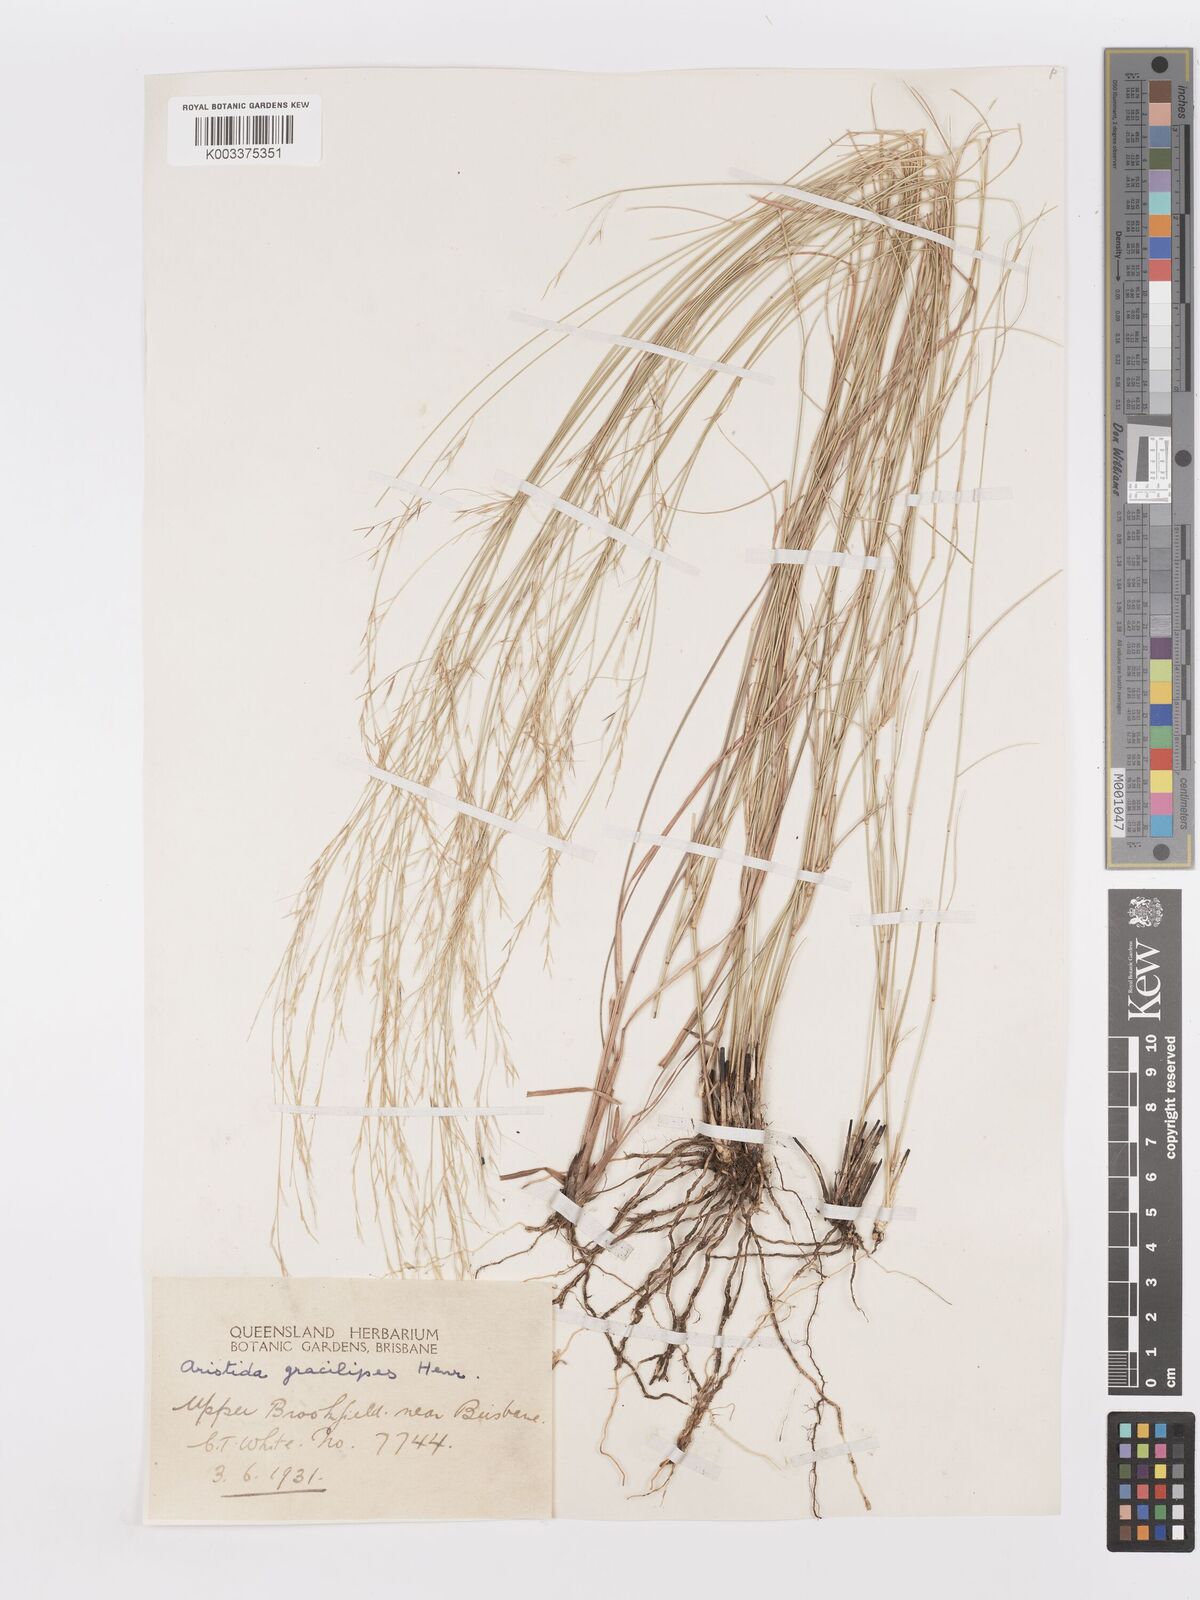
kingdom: Plantae
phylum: Tracheophyta
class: Liliopsida
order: Poales
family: Poaceae
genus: Aristida
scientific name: Aristida gracilipes
